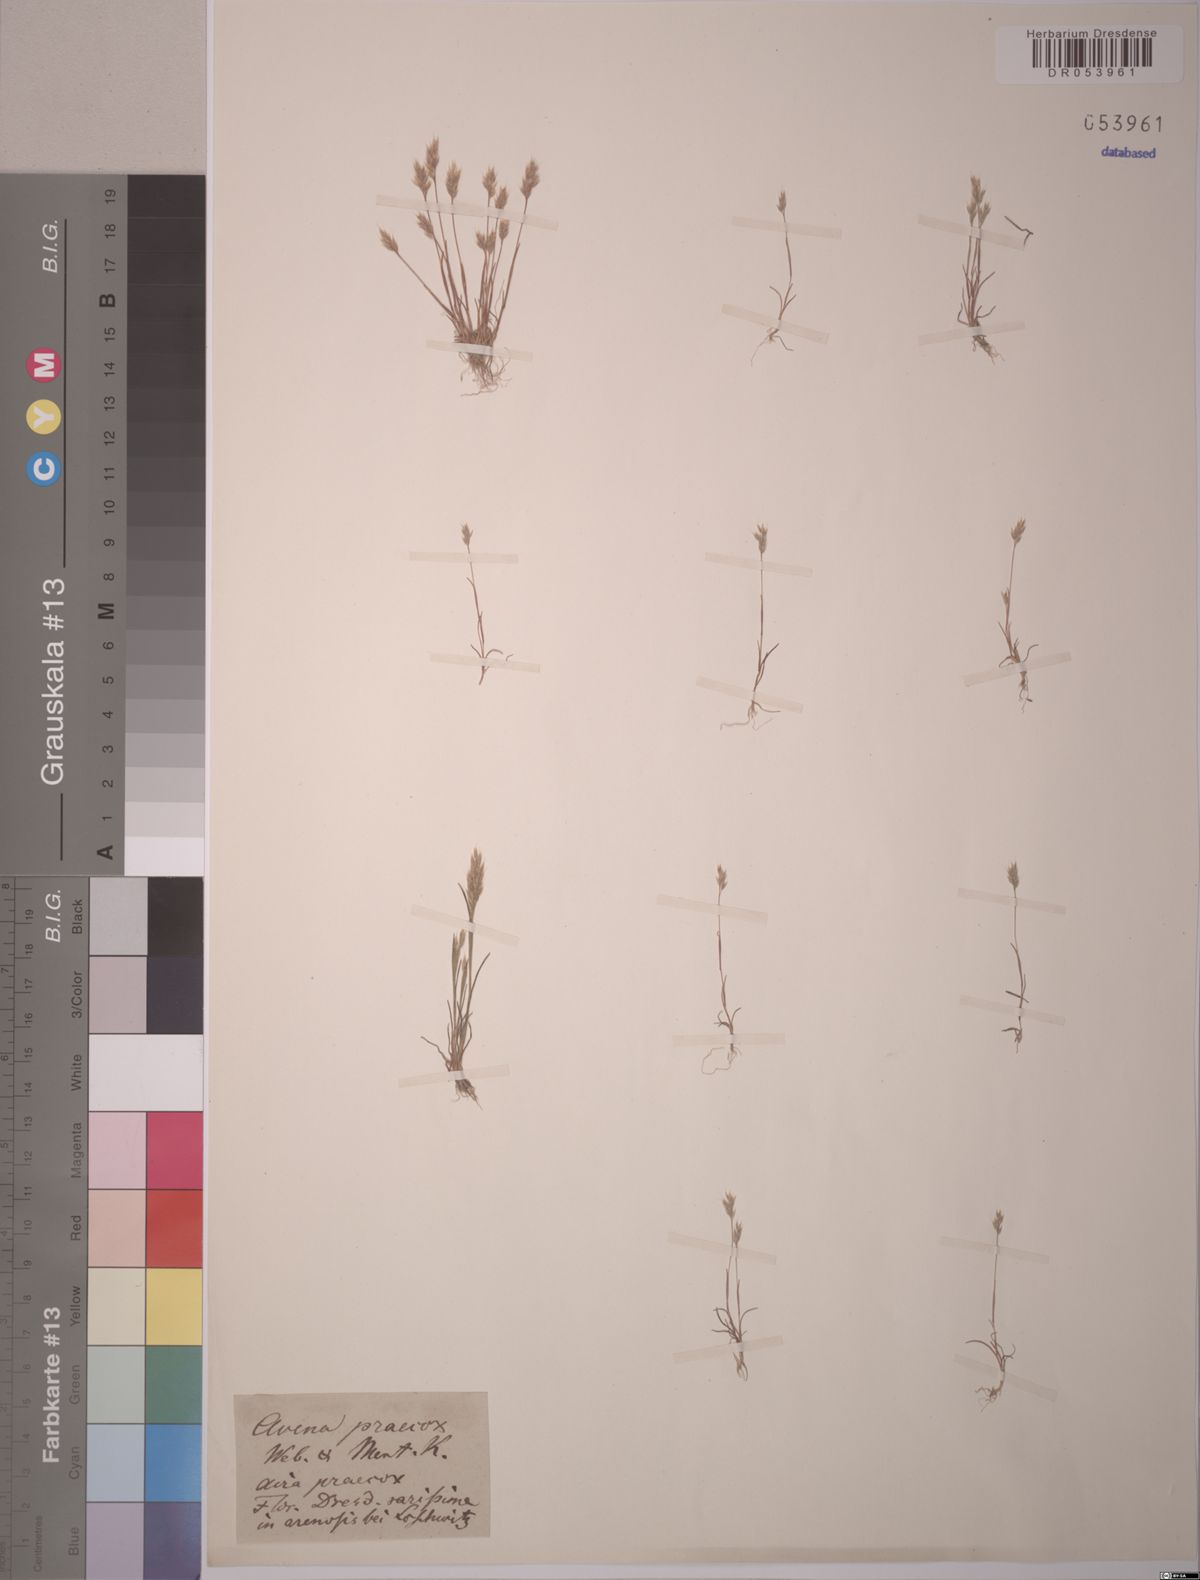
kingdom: Plantae
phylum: Tracheophyta
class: Liliopsida
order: Poales
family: Poaceae
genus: Aira
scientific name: Aira praecox
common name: Early hair-grass
